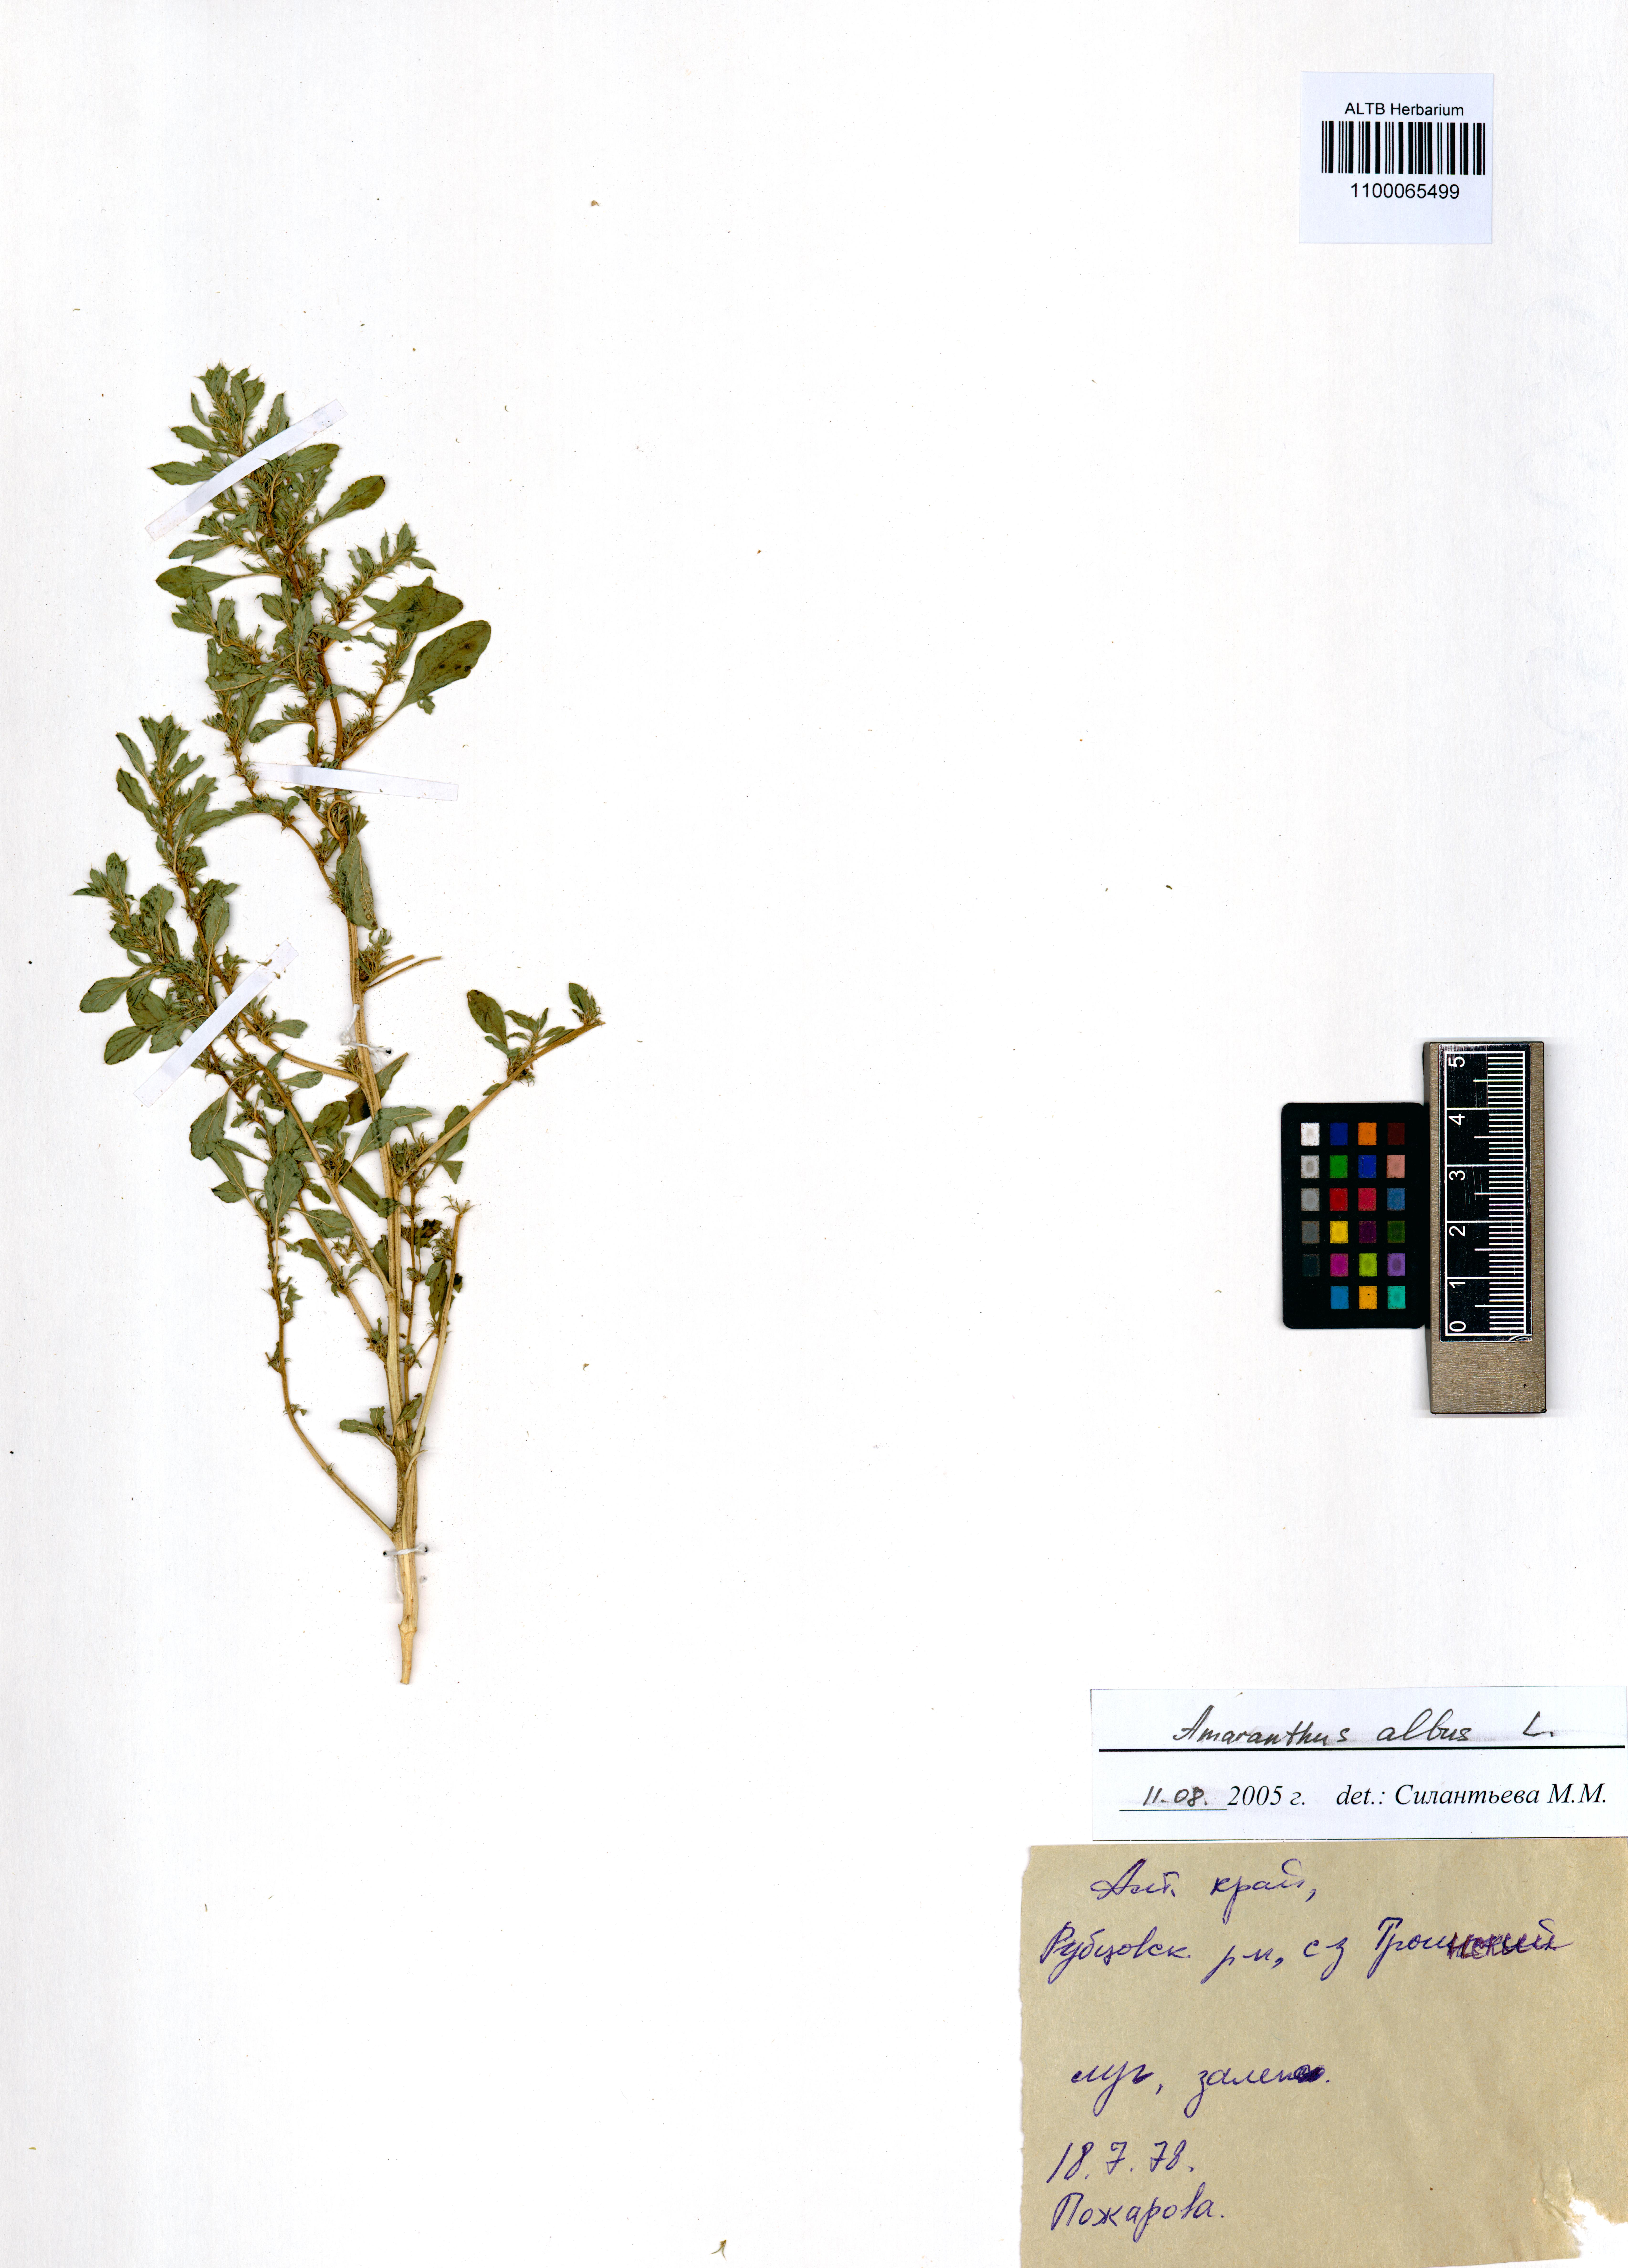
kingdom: Plantae
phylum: Tracheophyta
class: Magnoliopsida
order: Caryophyllales
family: Amaranthaceae
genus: Amaranthus
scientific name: Amaranthus albus
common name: White pigweed
